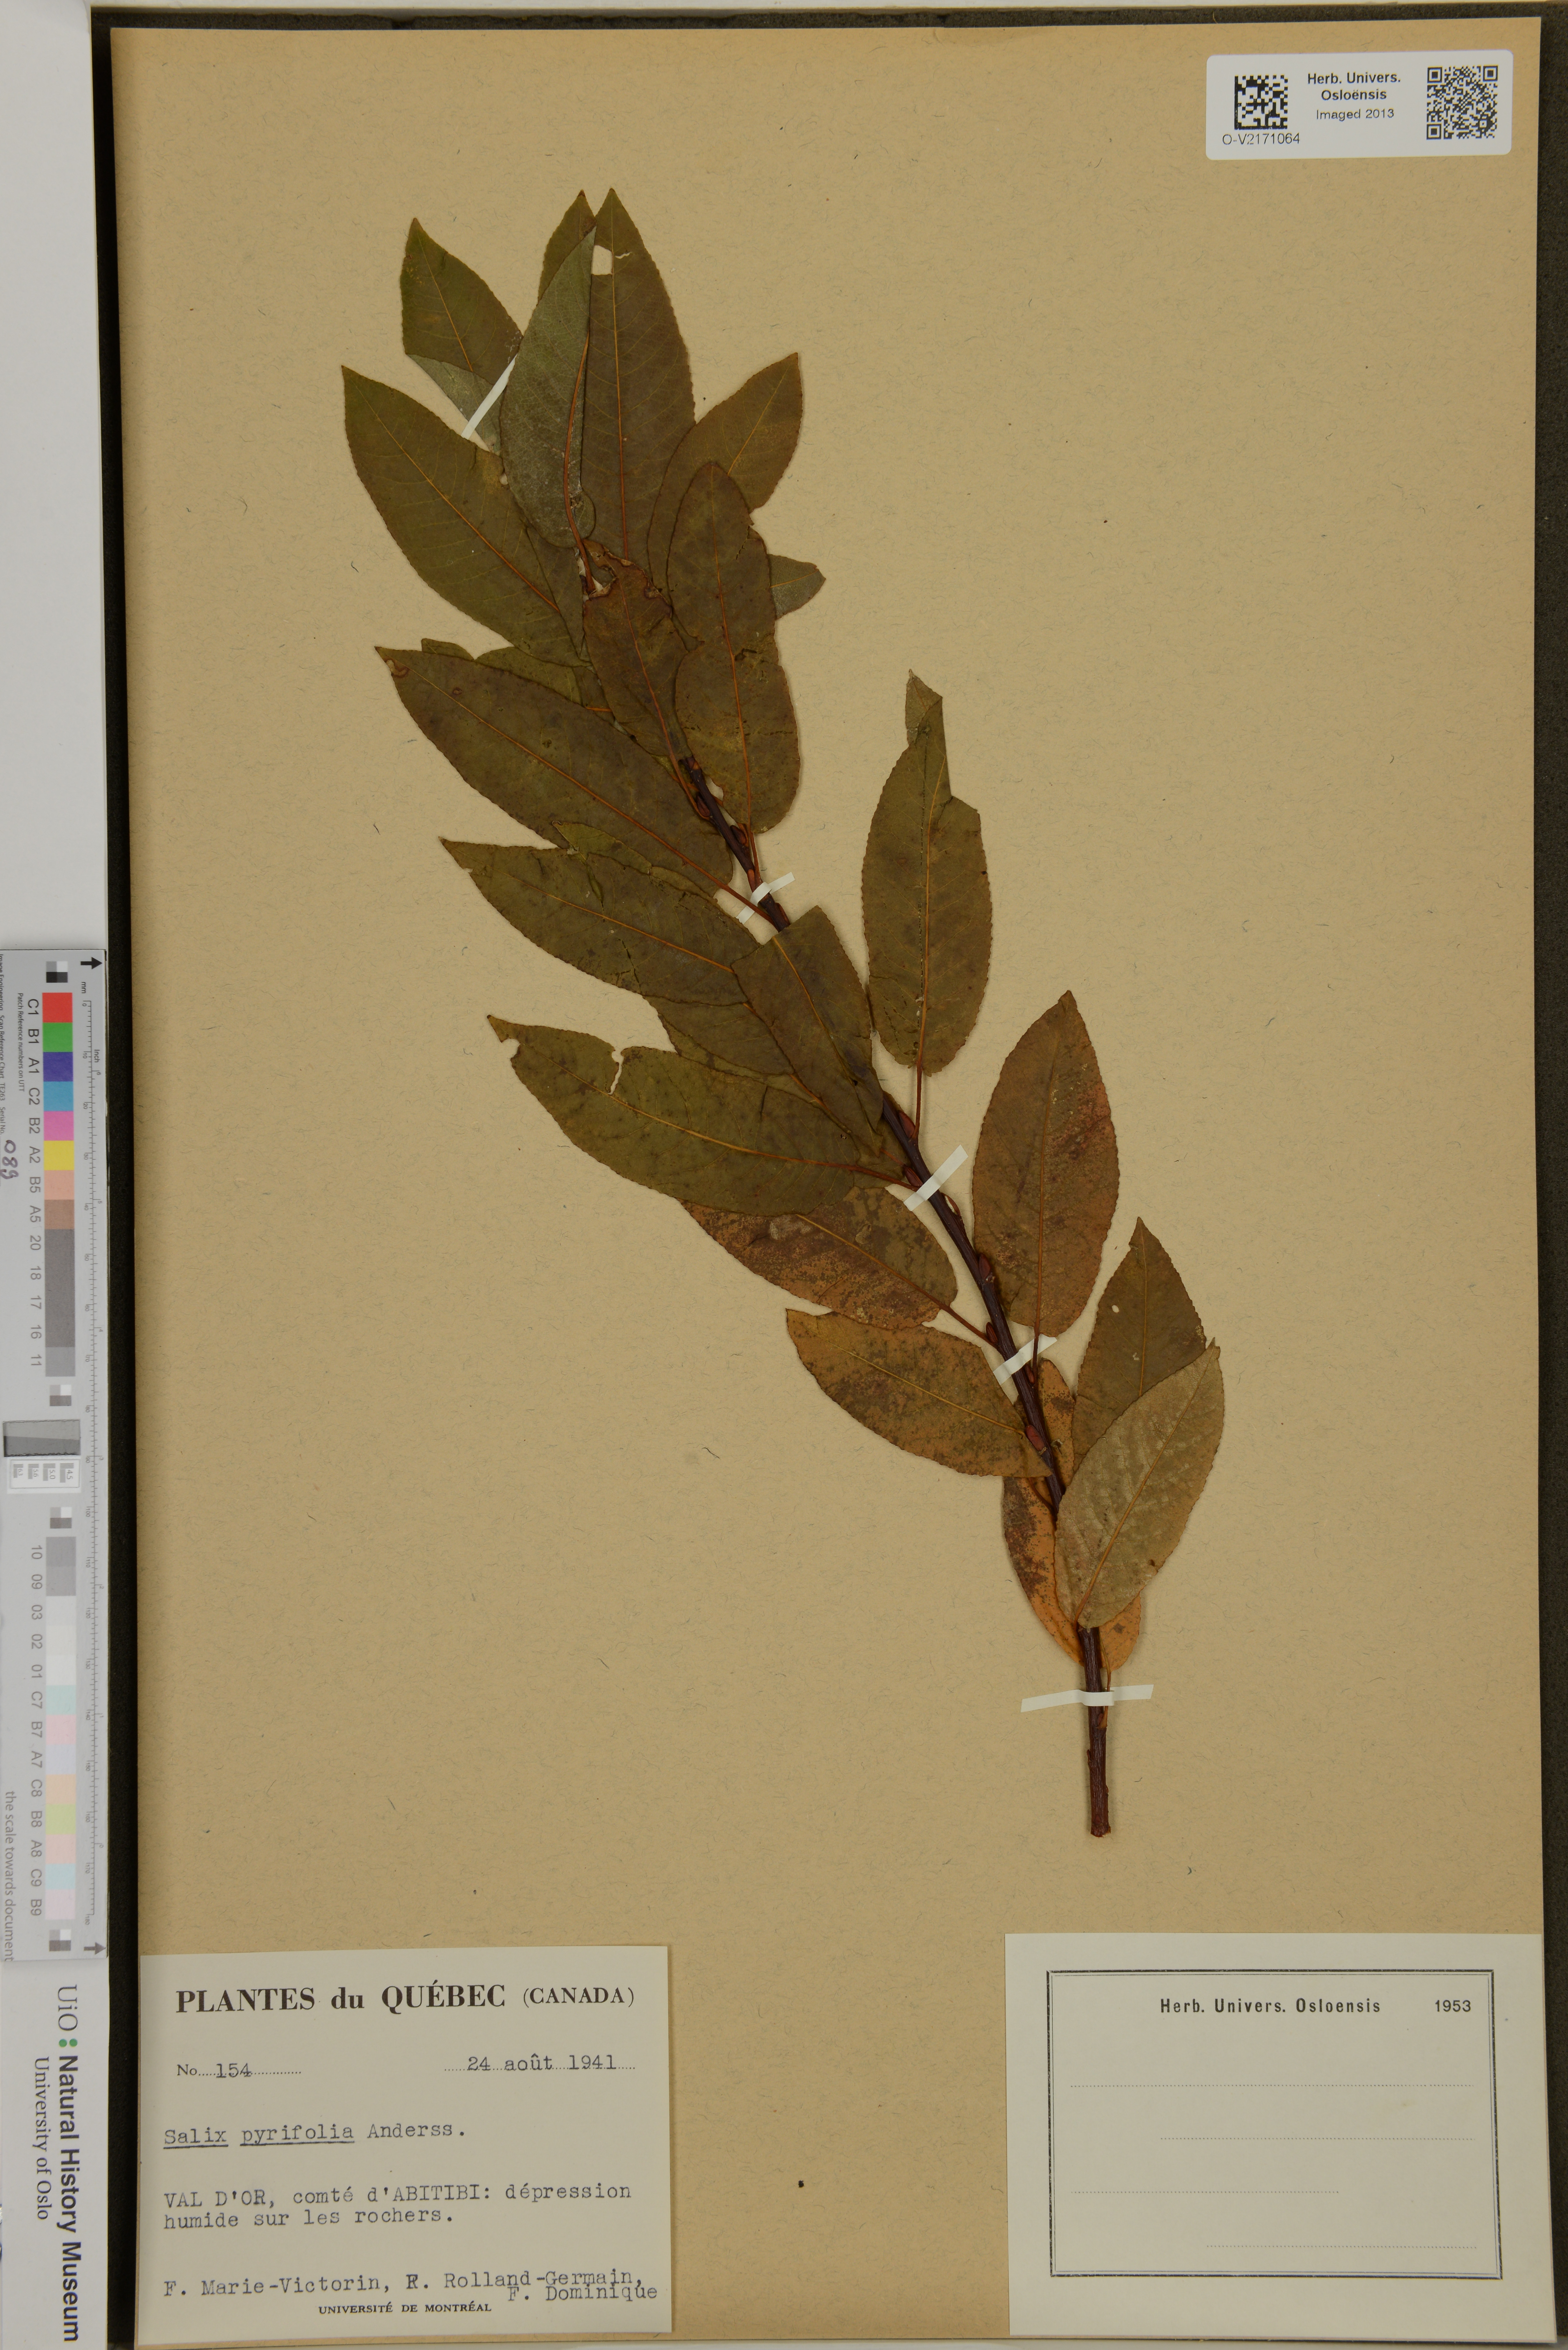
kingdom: Plantae
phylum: Tracheophyta
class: Magnoliopsida
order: Malpighiales
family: Salicaceae
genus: Salix
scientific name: Salix pyrifolia
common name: Balsam willow
